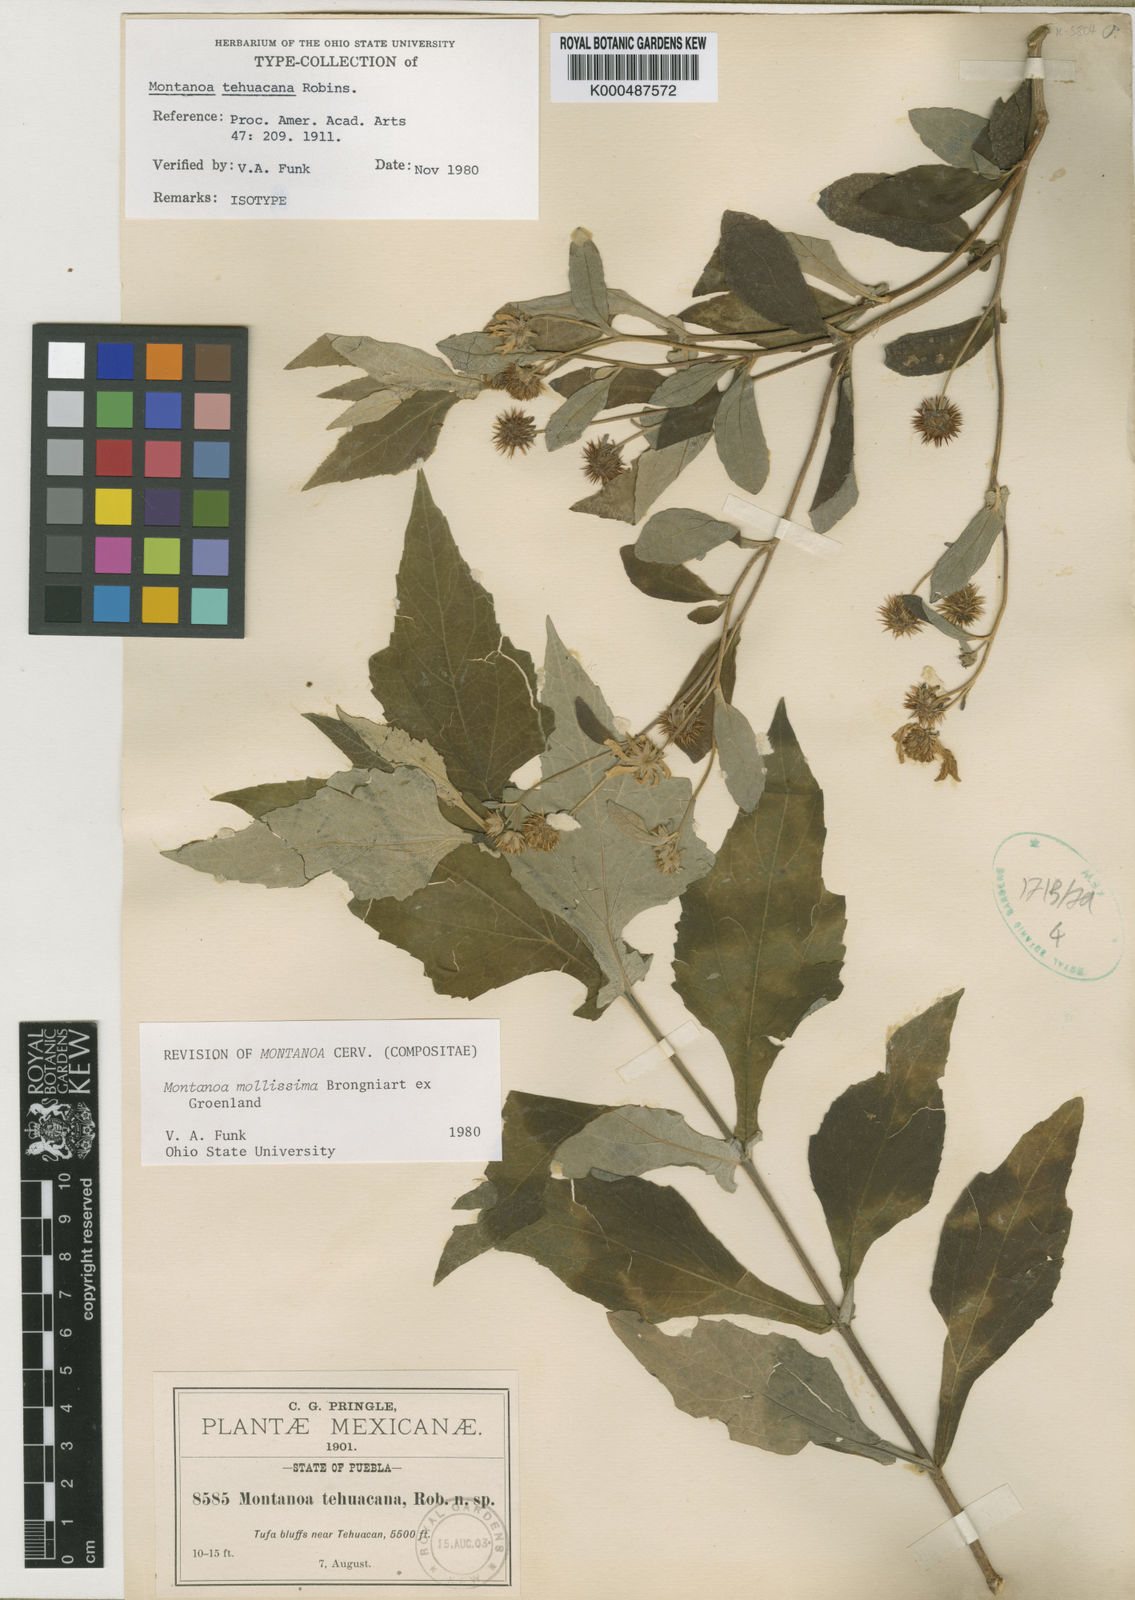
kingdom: Plantae
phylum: Tracheophyta
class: Magnoliopsida
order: Asterales
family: Asteraceae
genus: Montanoa
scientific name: Montanoa mollissima
